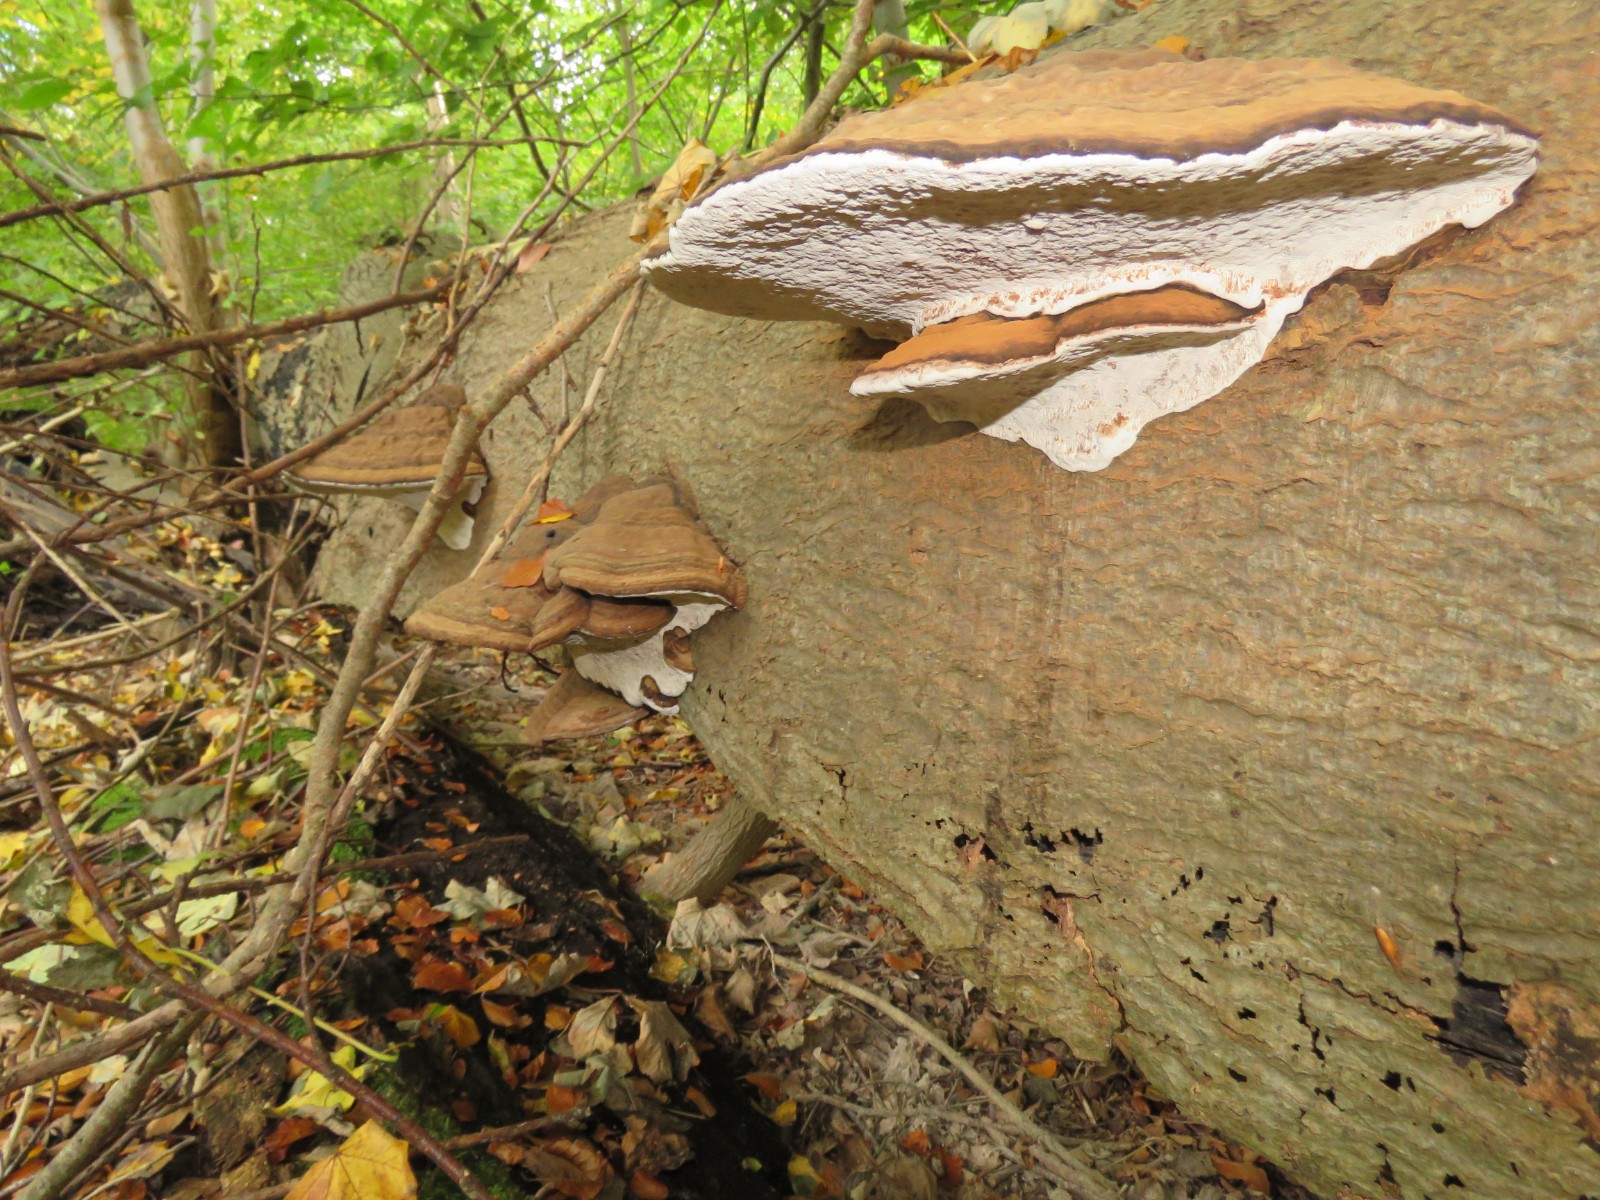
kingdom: Fungi
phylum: Basidiomycota
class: Agaricomycetes
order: Polyporales
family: Polyporaceae
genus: Ganoderma
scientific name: Ganoderma applanatum
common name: flad lakporesvamp
